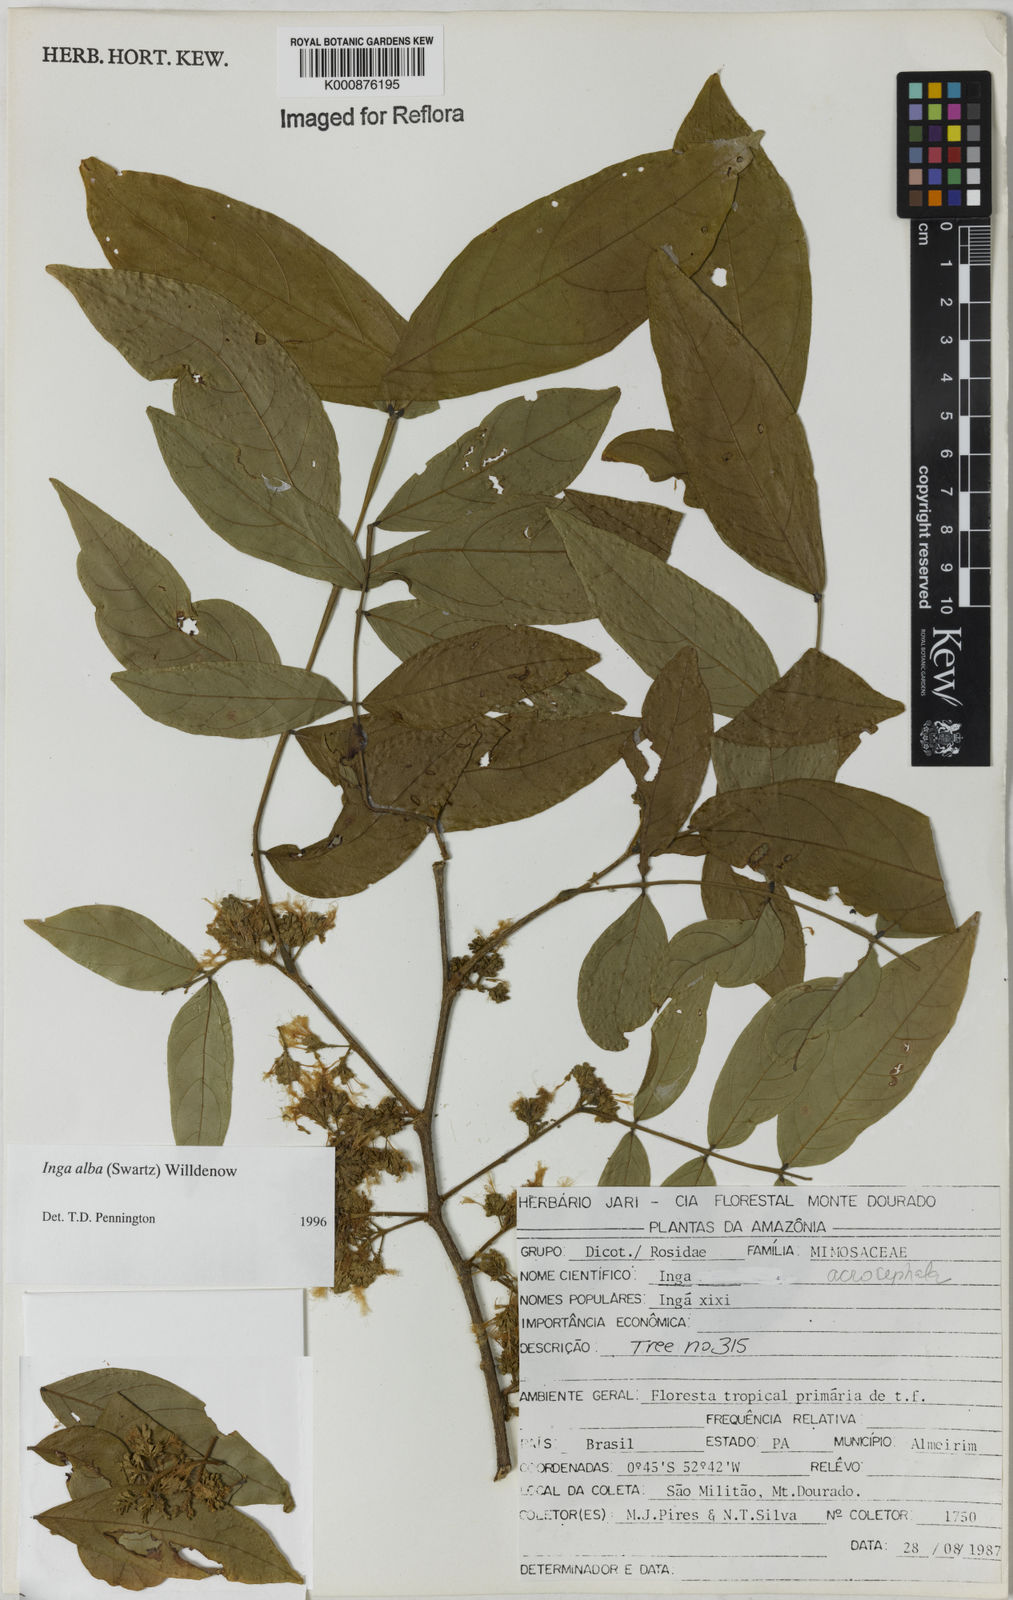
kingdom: Plantae
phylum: Tracheophyta
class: Magnoliopsida
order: Fabales
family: Fabaceae
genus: Inga
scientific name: Inga alba
